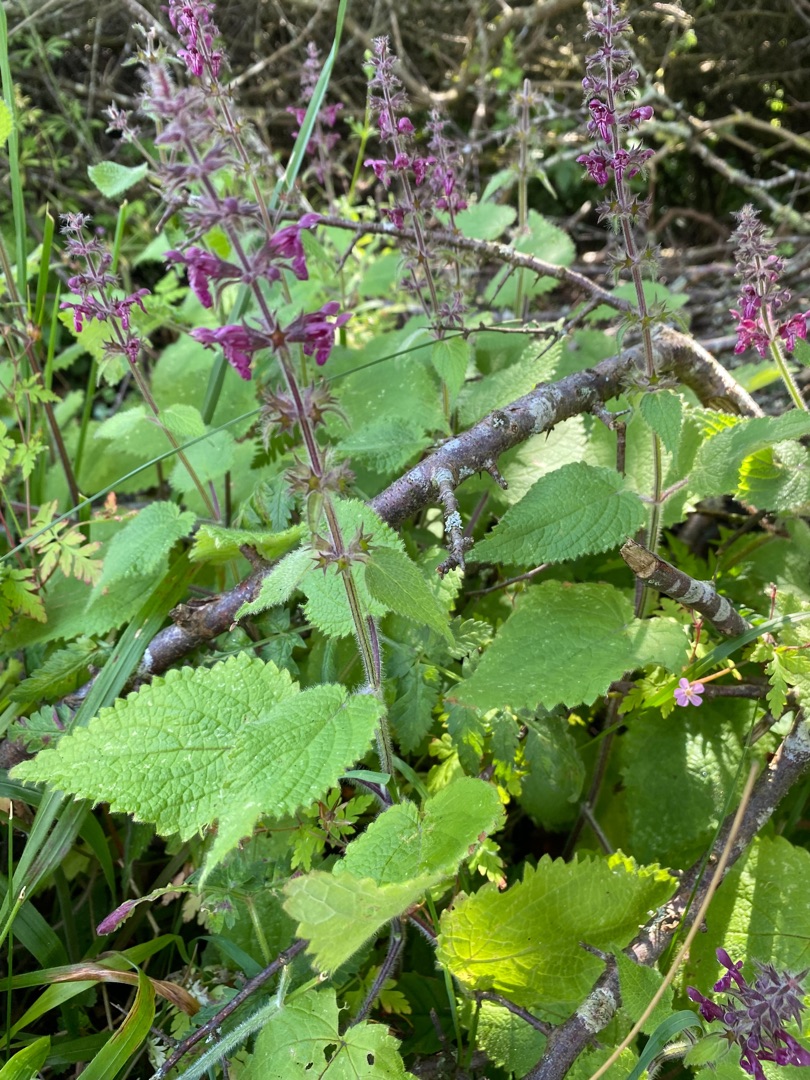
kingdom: Plantae
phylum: Tracheophyta
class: Magnoliopsida
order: Lamiales
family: Lamiaceae
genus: Stachys
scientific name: Stachys sylvatica
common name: Skov-galtetand
